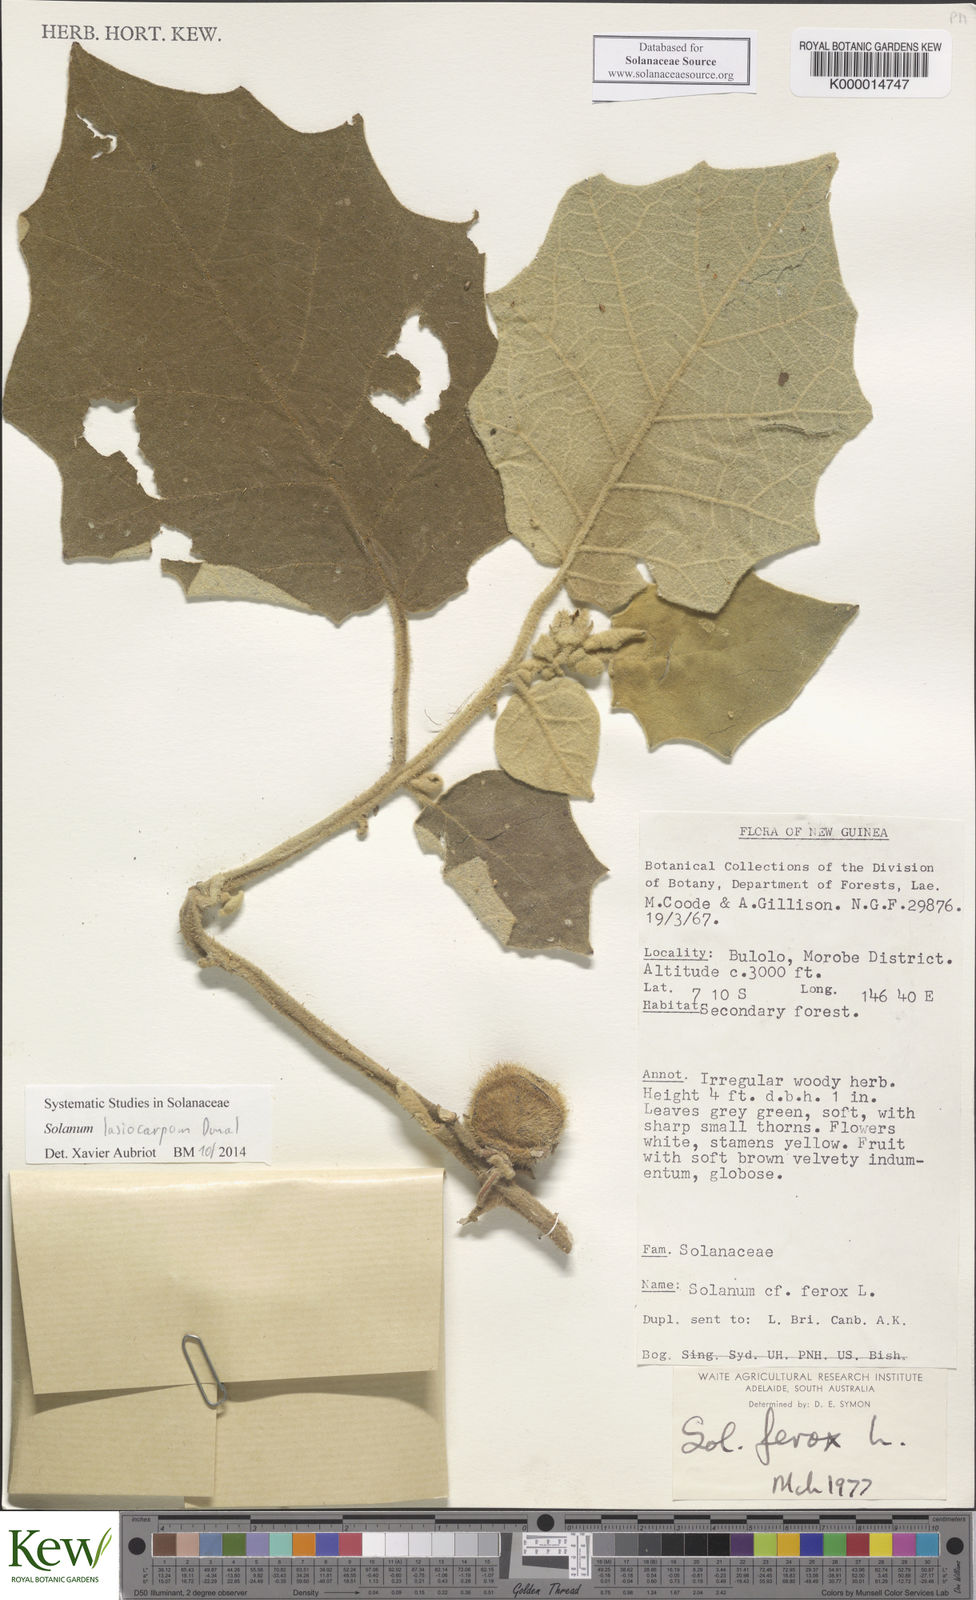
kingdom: Plantae
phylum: Tracheophyta
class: Magnoliopsida
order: Solanales
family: Solanaceae
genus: Solanum
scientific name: Solanum lasiocarpum
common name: Indian nightshade
